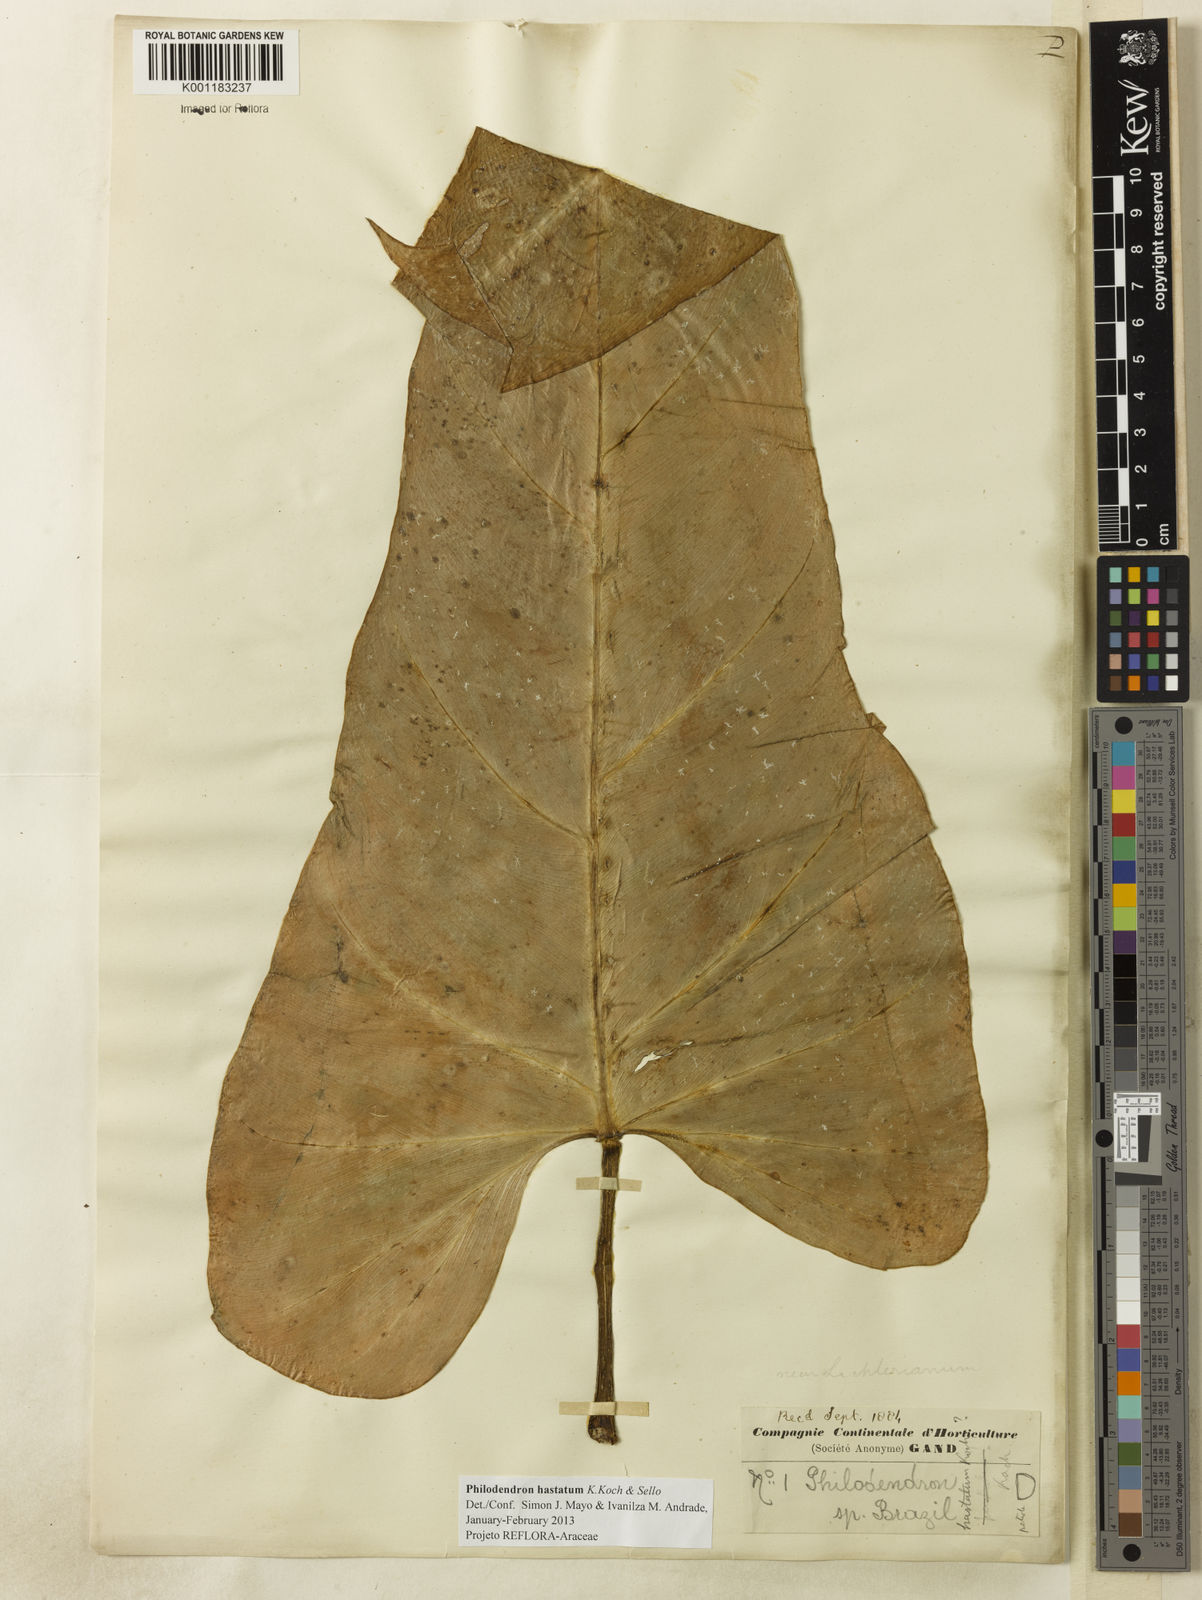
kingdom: Plantae
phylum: Tracheophyta
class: Liliopsida
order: Alismatales
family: Araceae
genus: Philodendron
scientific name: Philodendron hastatum
